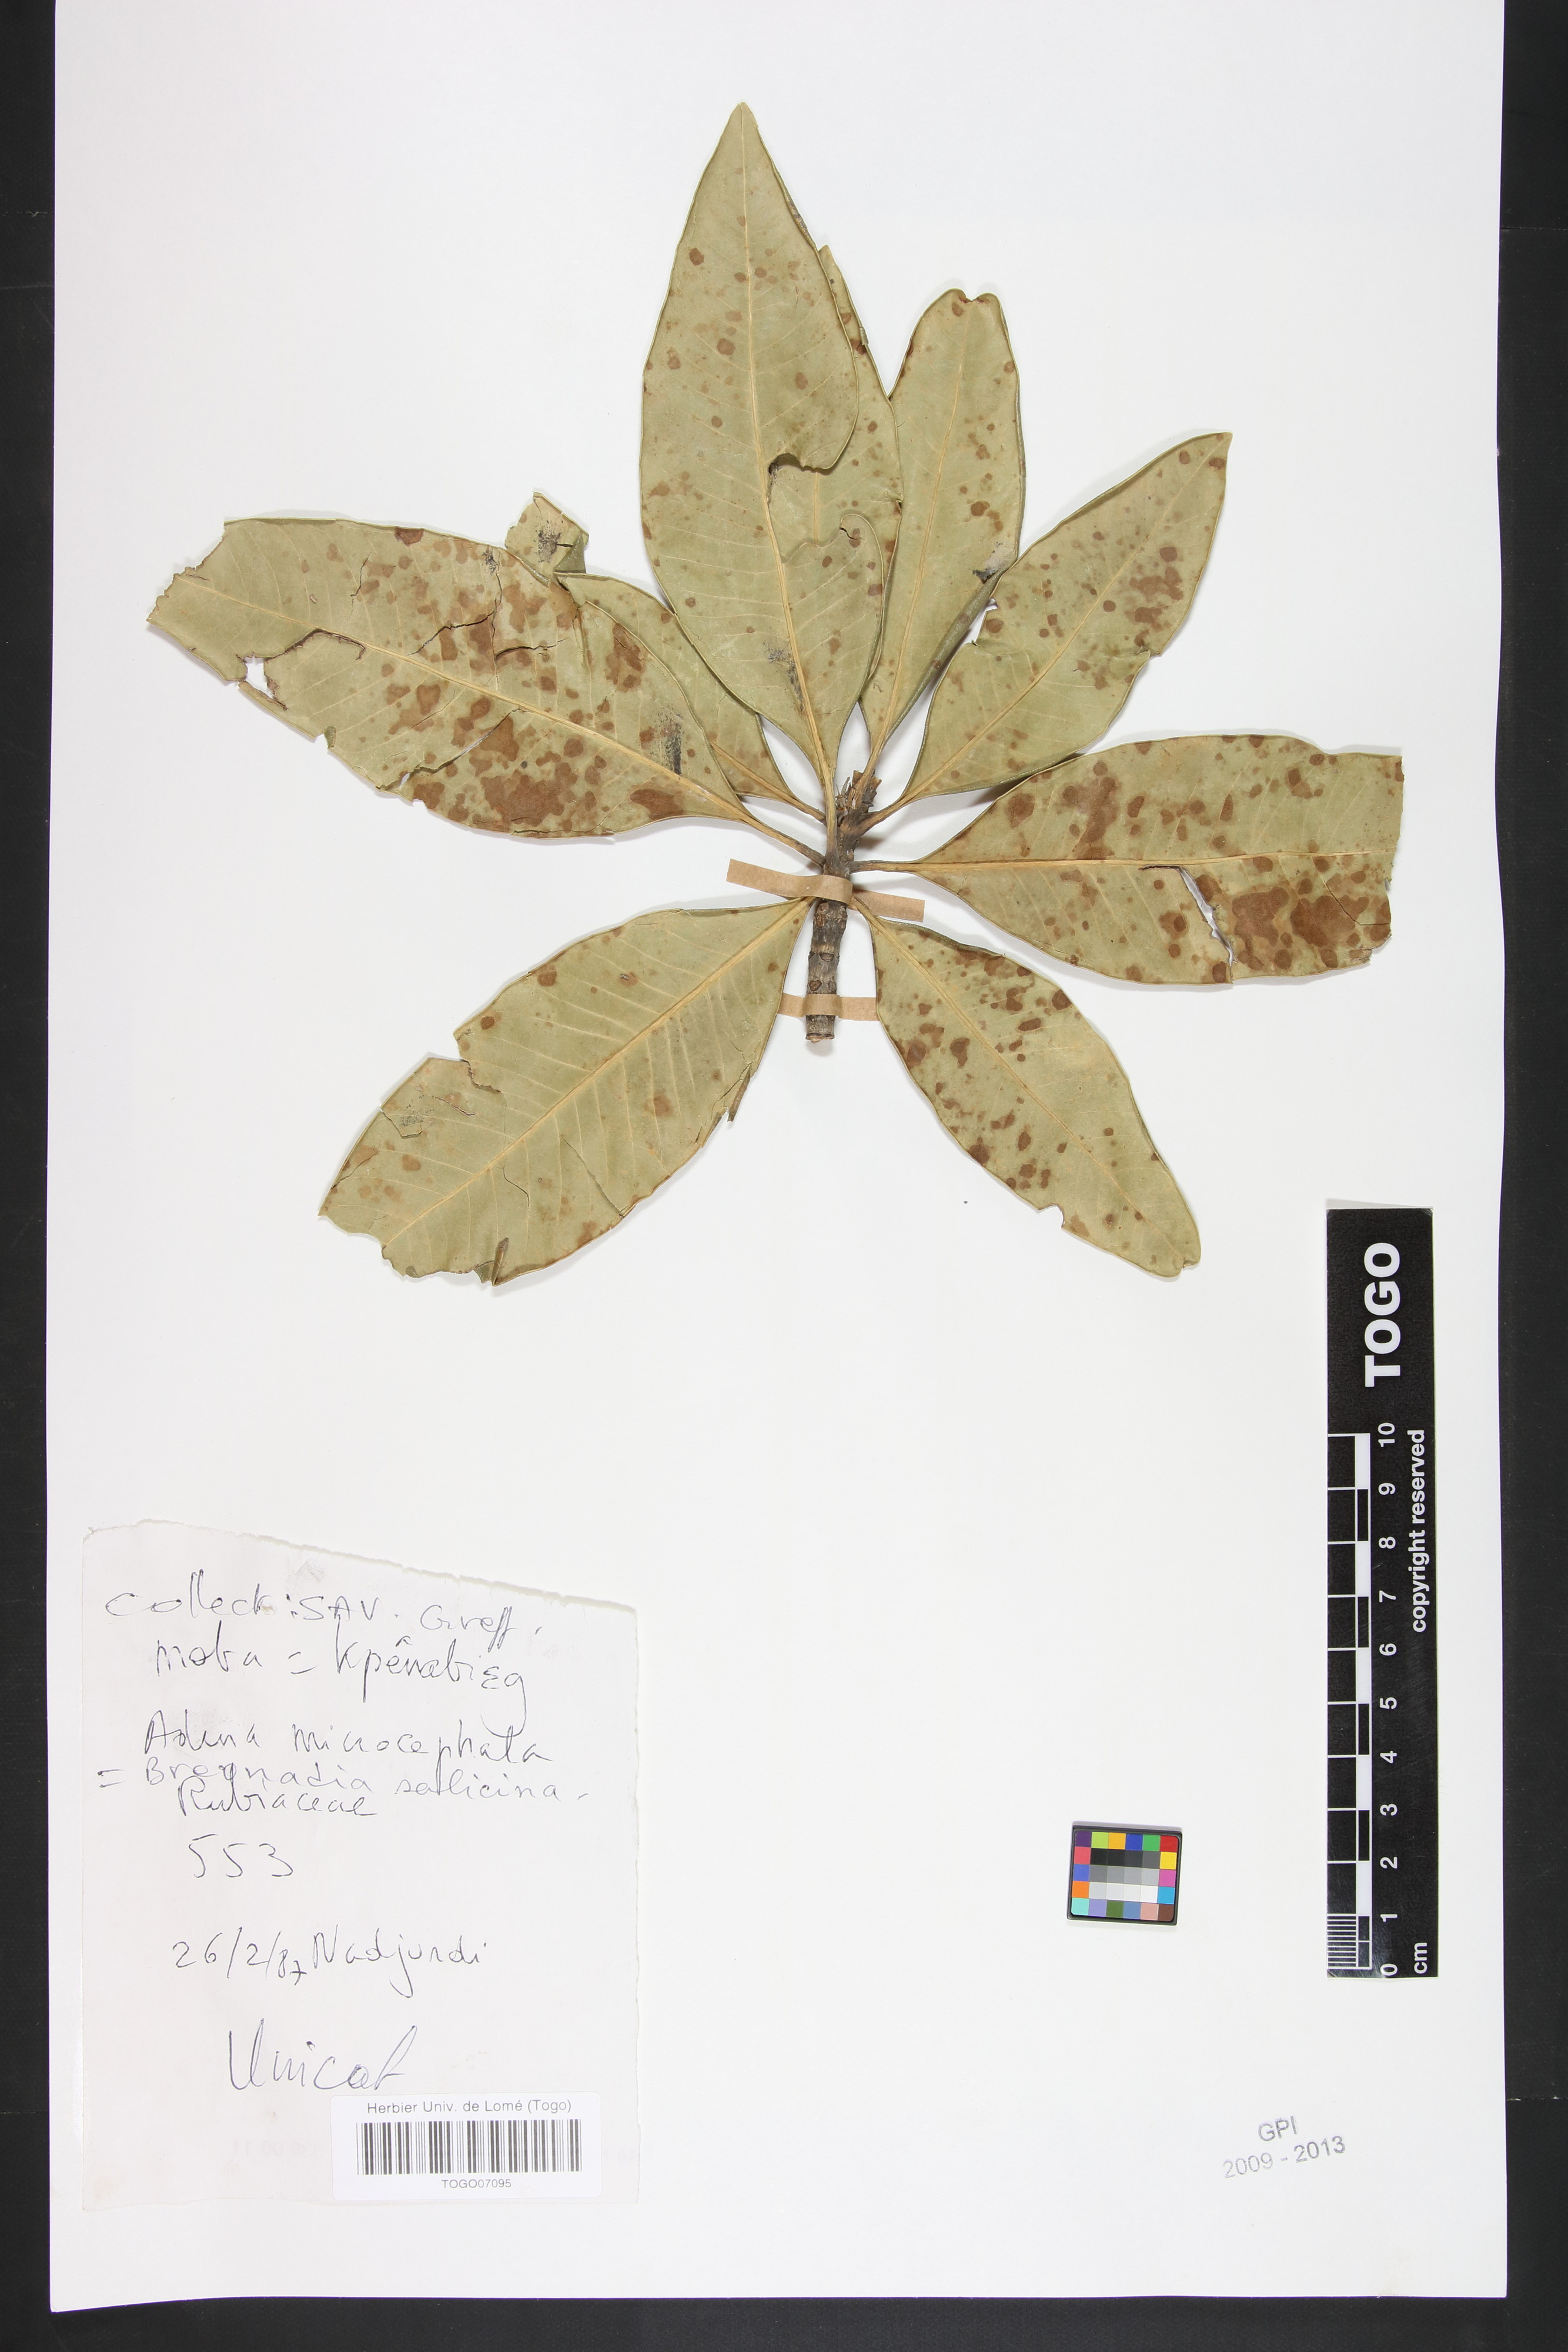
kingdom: Plantae
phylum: Tracheophyta
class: Magnoliopsida
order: Gentianales
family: Rubiaceae
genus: Breonadia
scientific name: Breonadia salicina
